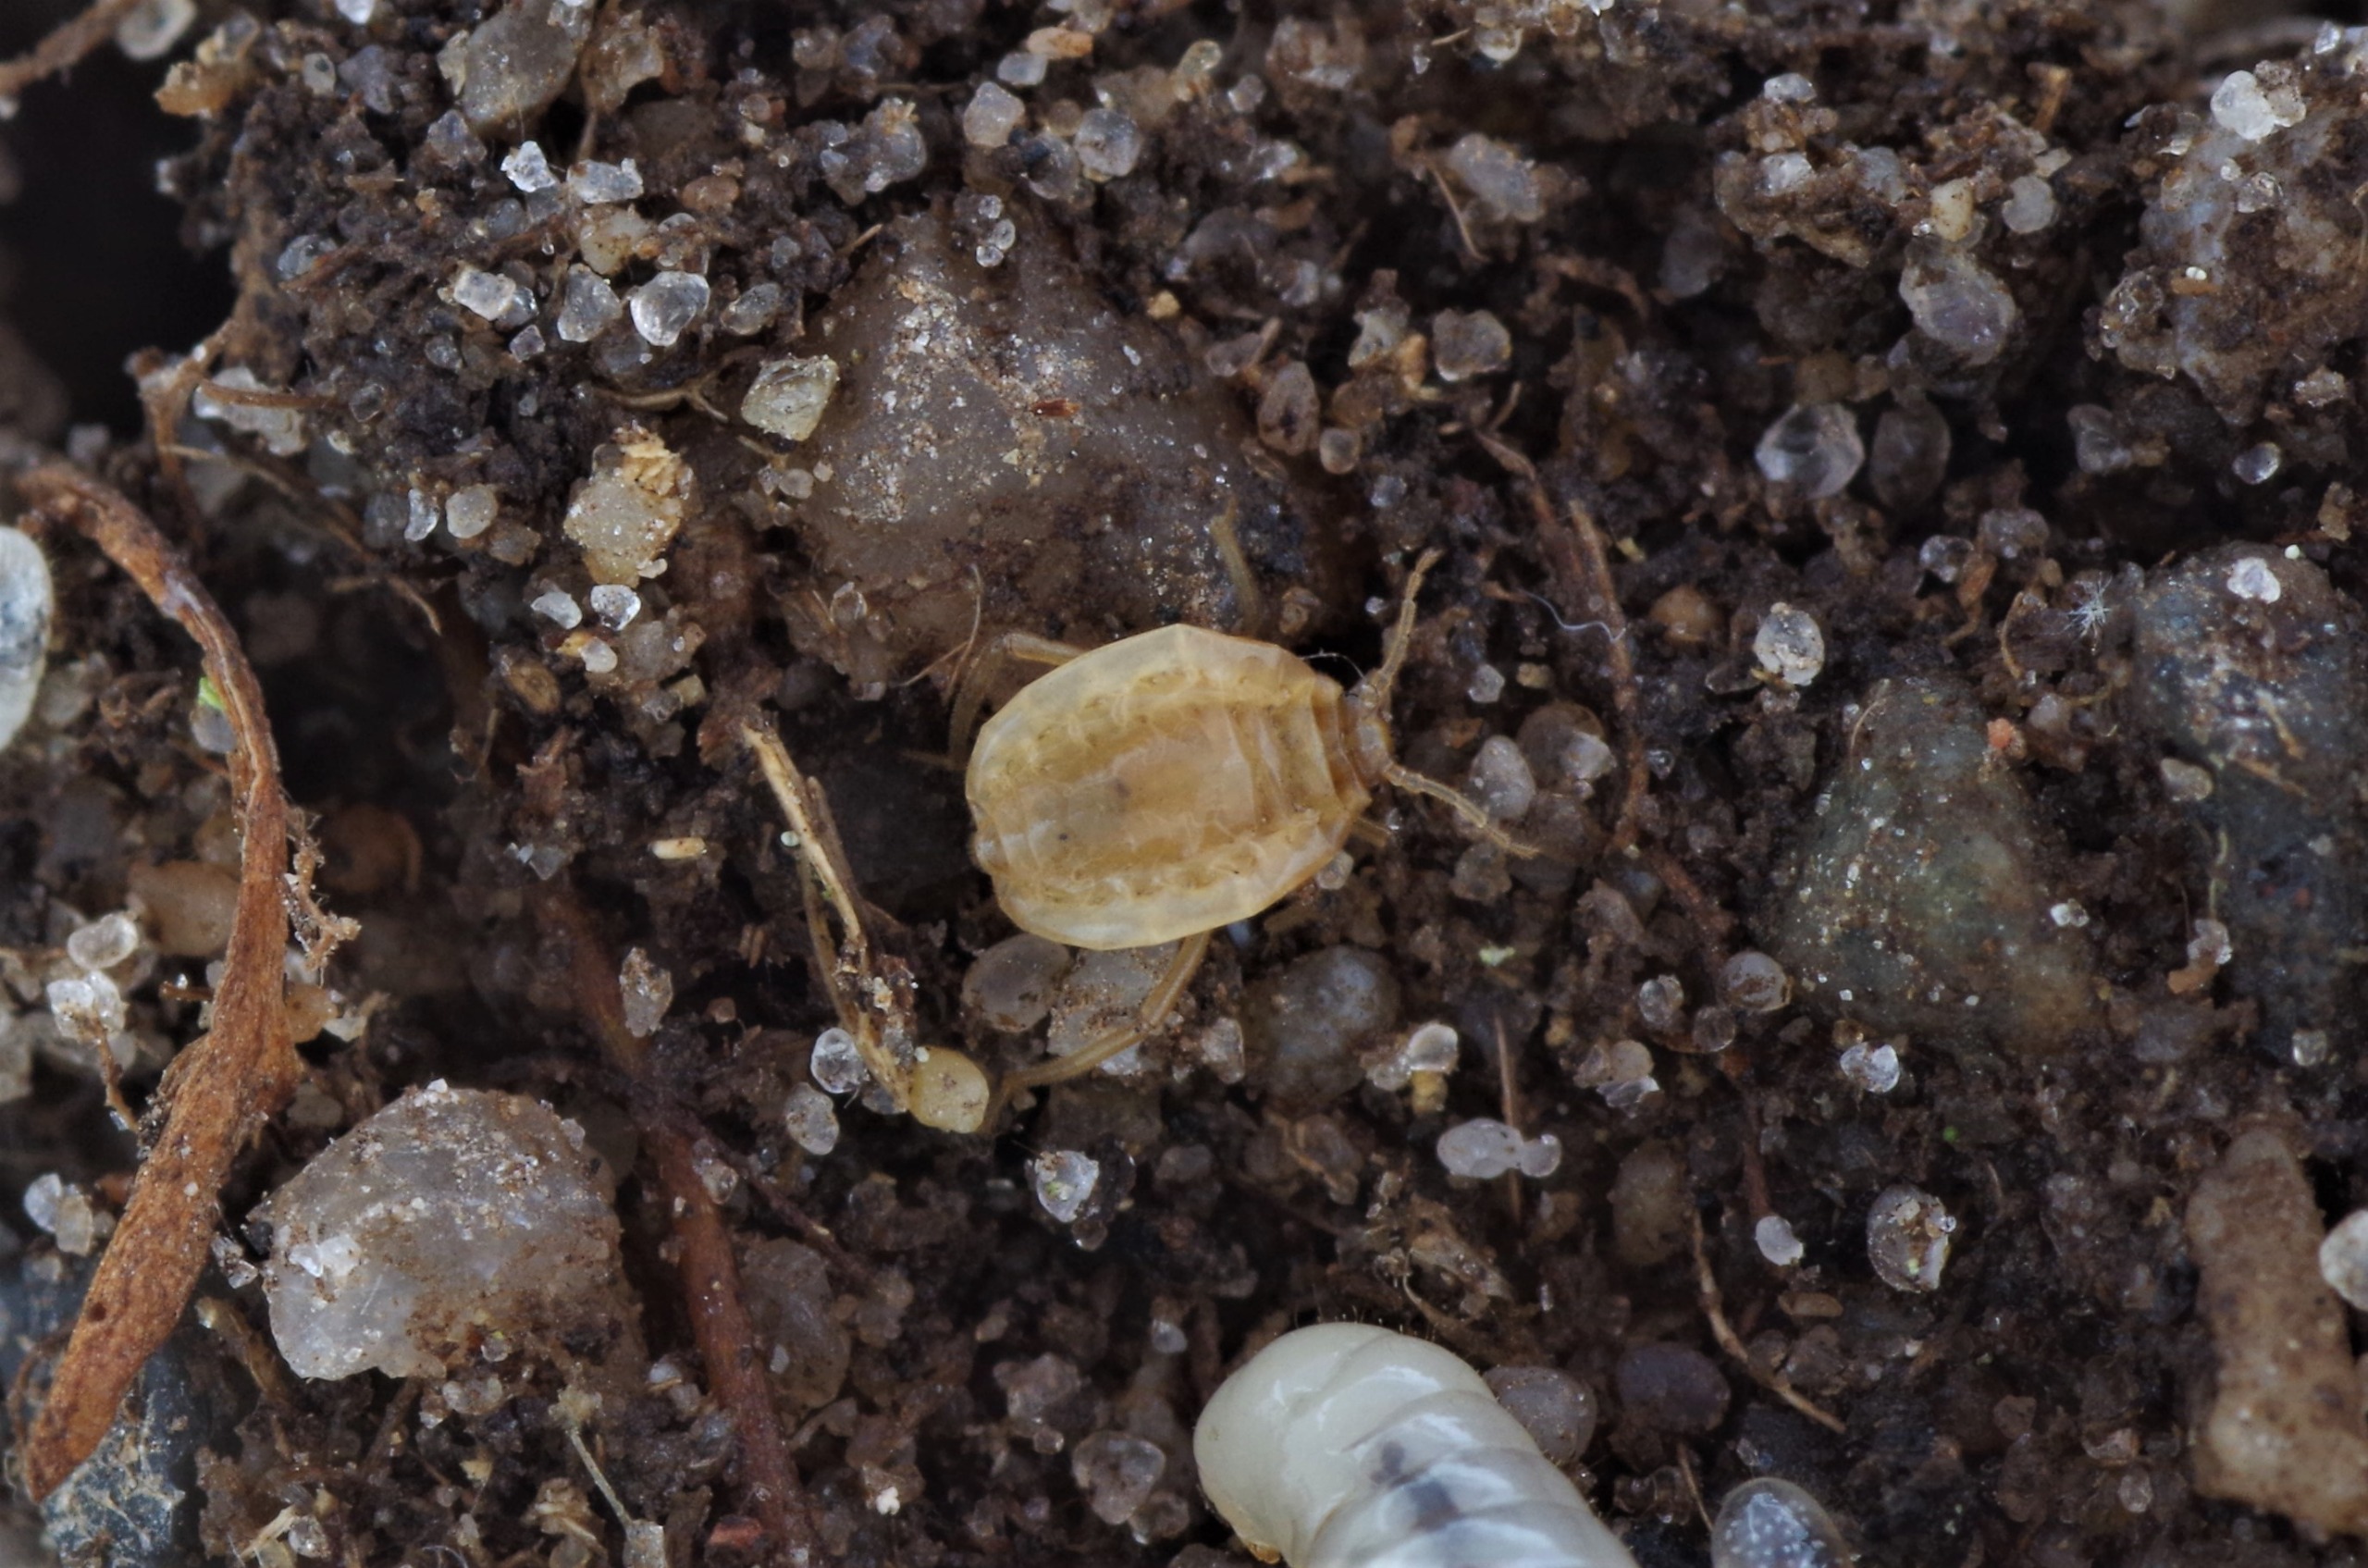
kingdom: Animalia
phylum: Arthropoda
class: Insecta
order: Hemiptera
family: Aphididae
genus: Paracletus
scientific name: Paracletus cimiciformis
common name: Vampyrrodlus
